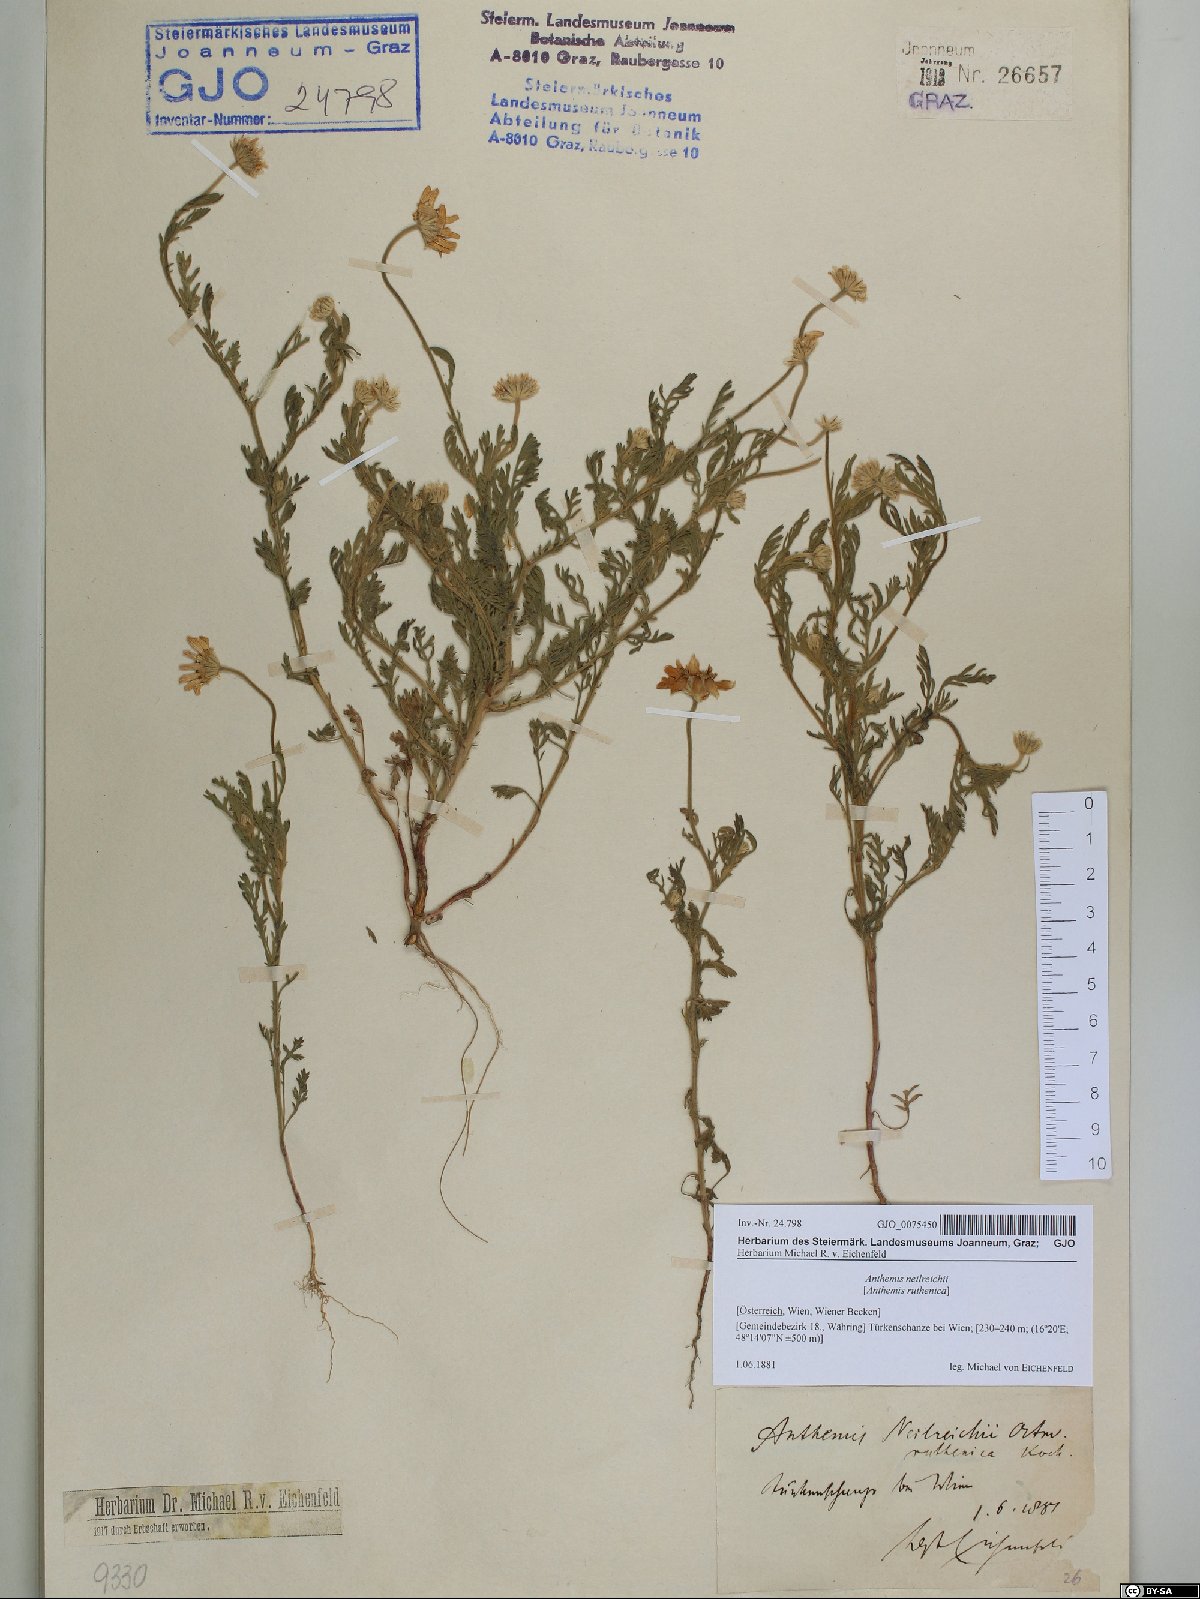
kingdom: Plantae
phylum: Tracheophyta
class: Magnoliopsida
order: Asterales
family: Asteraceae
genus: Anthemis
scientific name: Anthemis ruthenica
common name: Eastern chamomile
